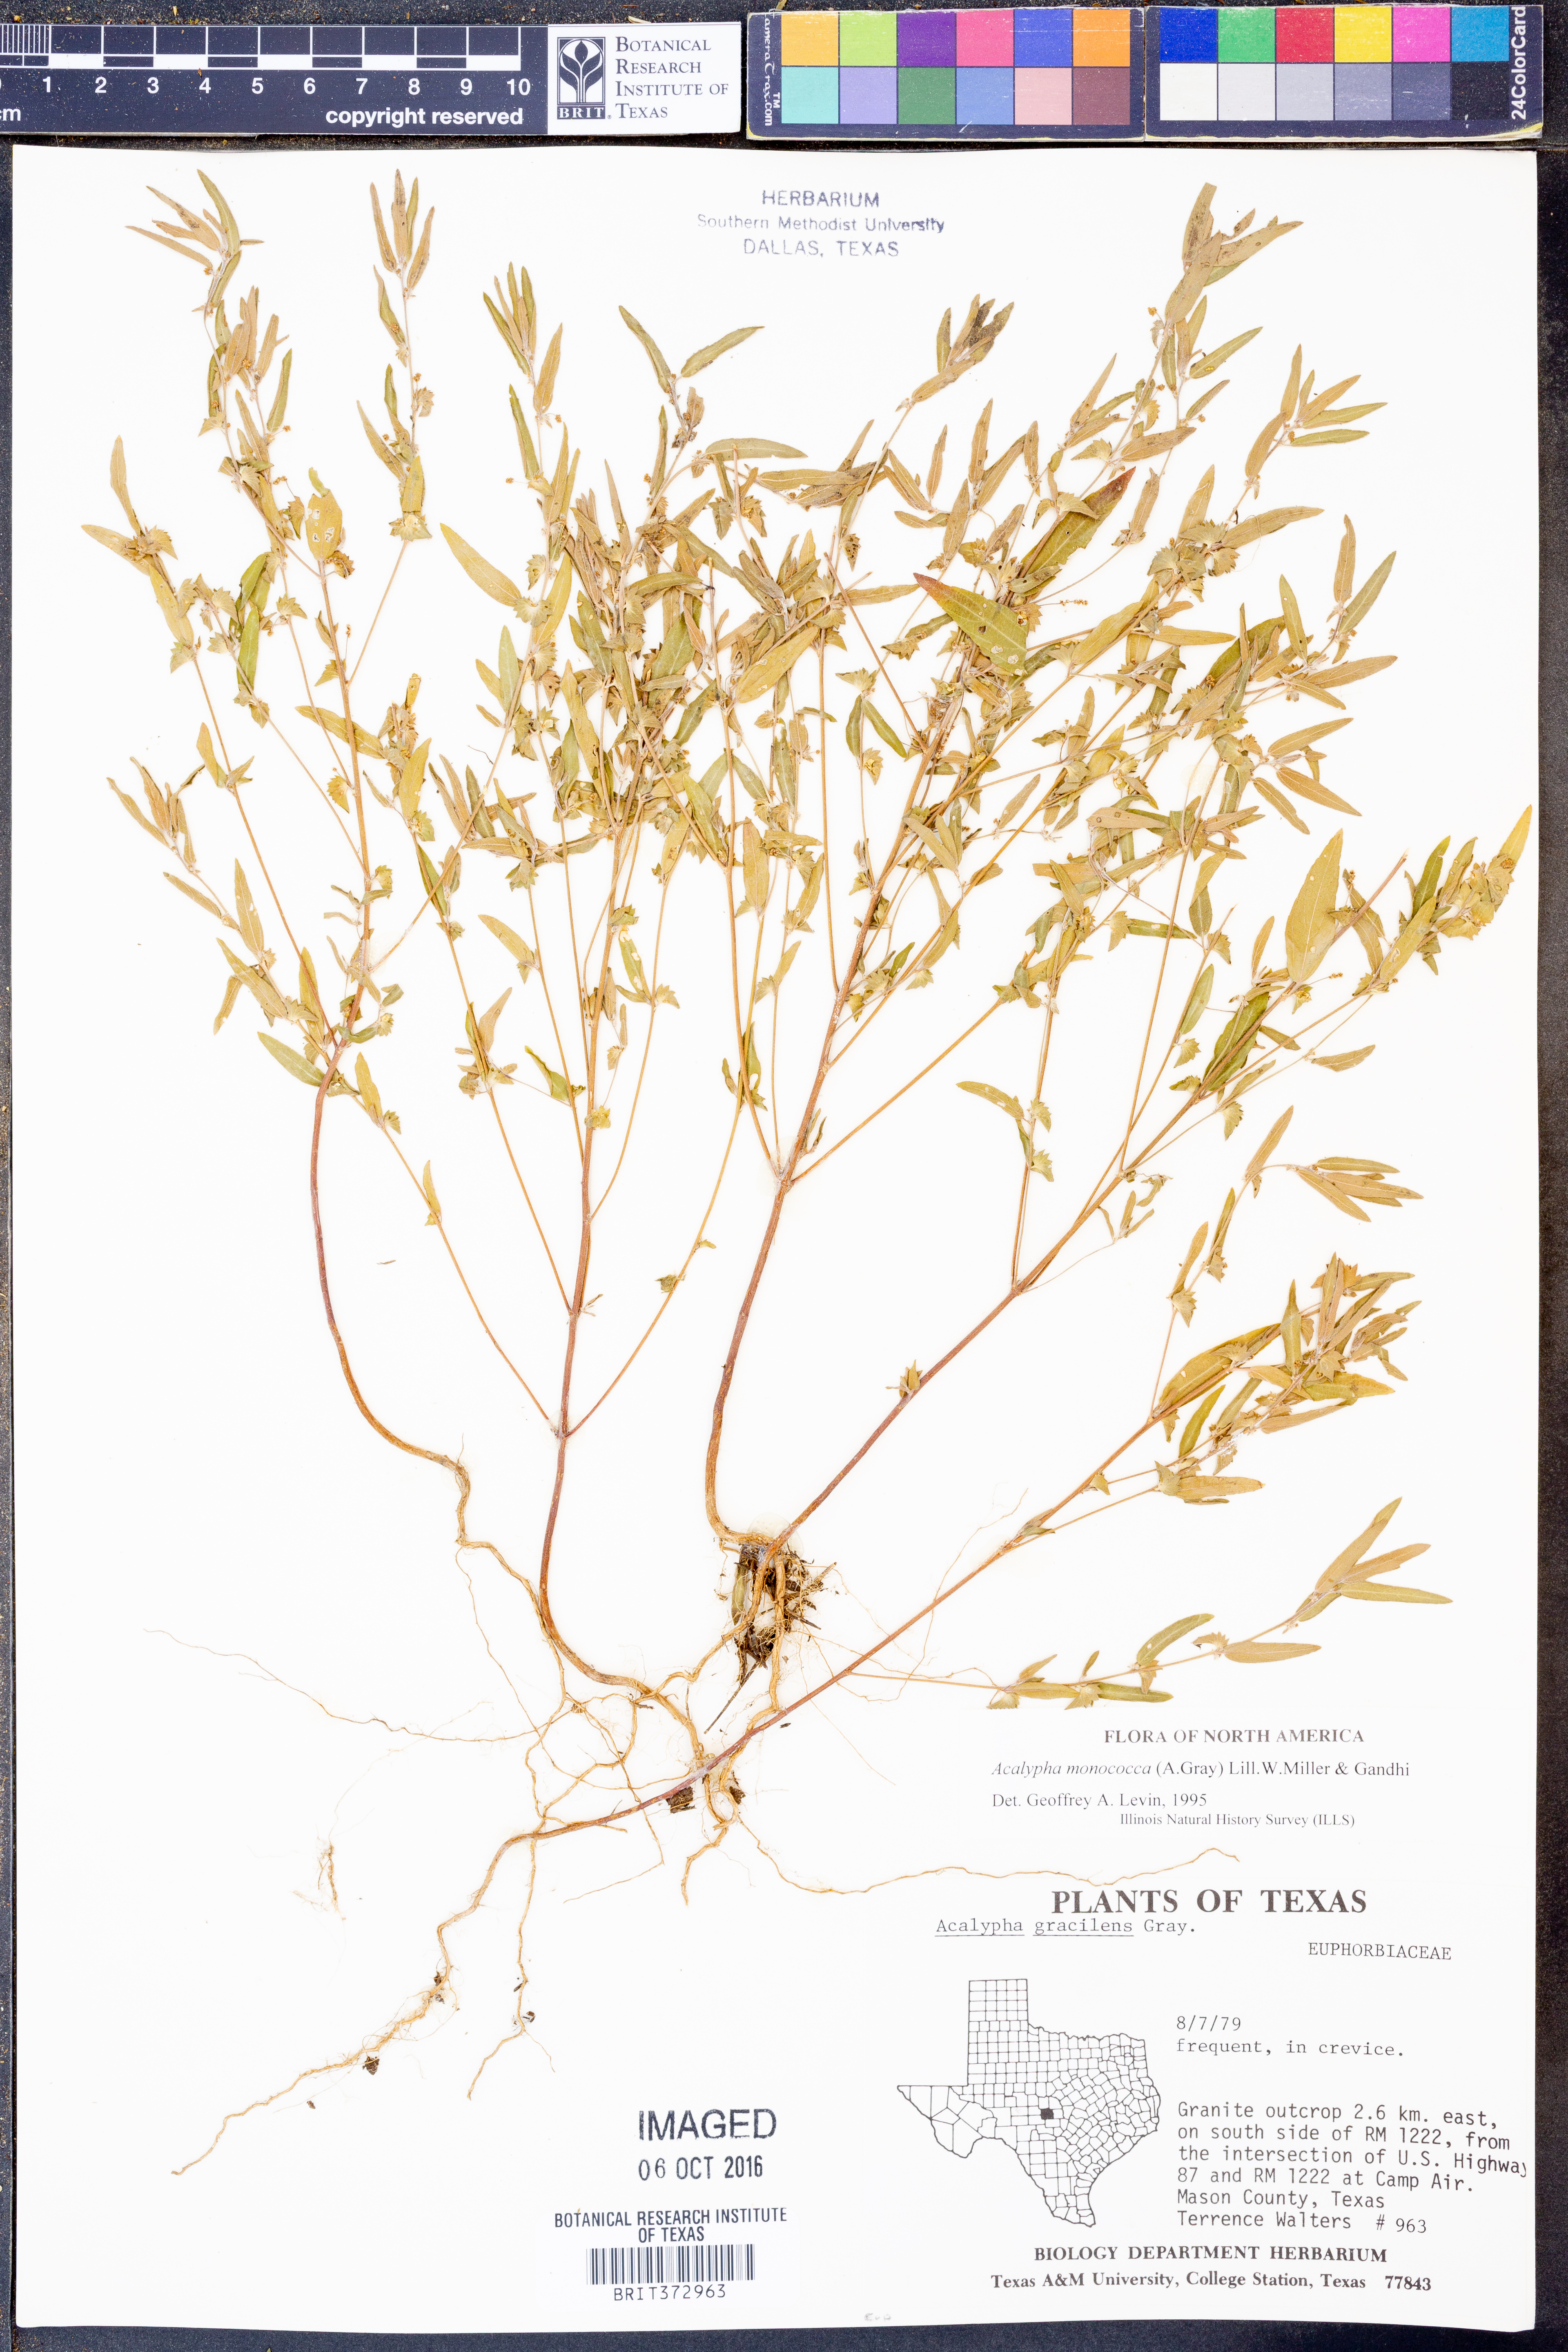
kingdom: Plantae
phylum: Tracheophyta
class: Magnoliopsida
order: Malpighiales
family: Euphorbiaceae
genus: Acalypha
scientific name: Acalypha monococca
